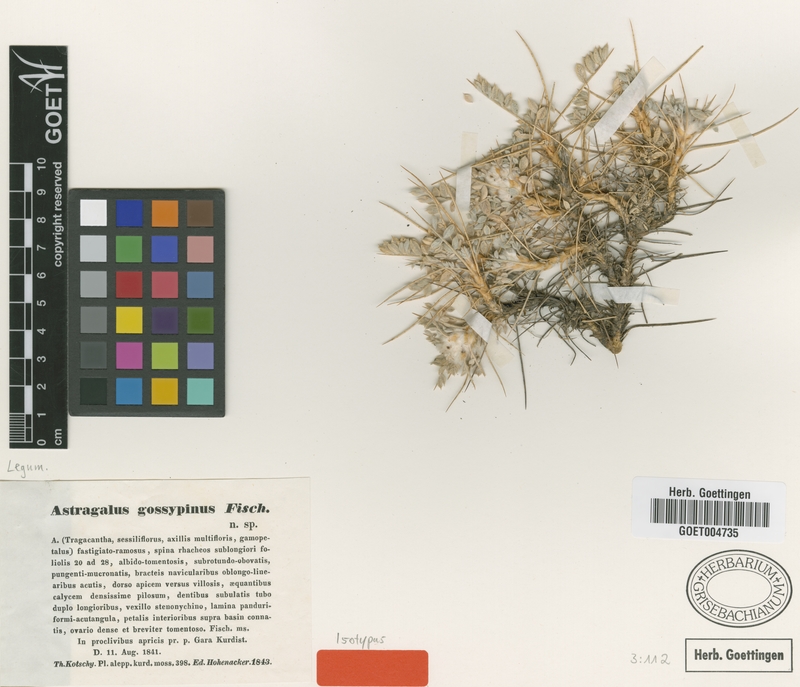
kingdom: Plantae
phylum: Tracheophyta
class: Magnoliopsida
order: Fabales
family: Fabaceae
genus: Astragalus
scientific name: Astragalus gossypinus
